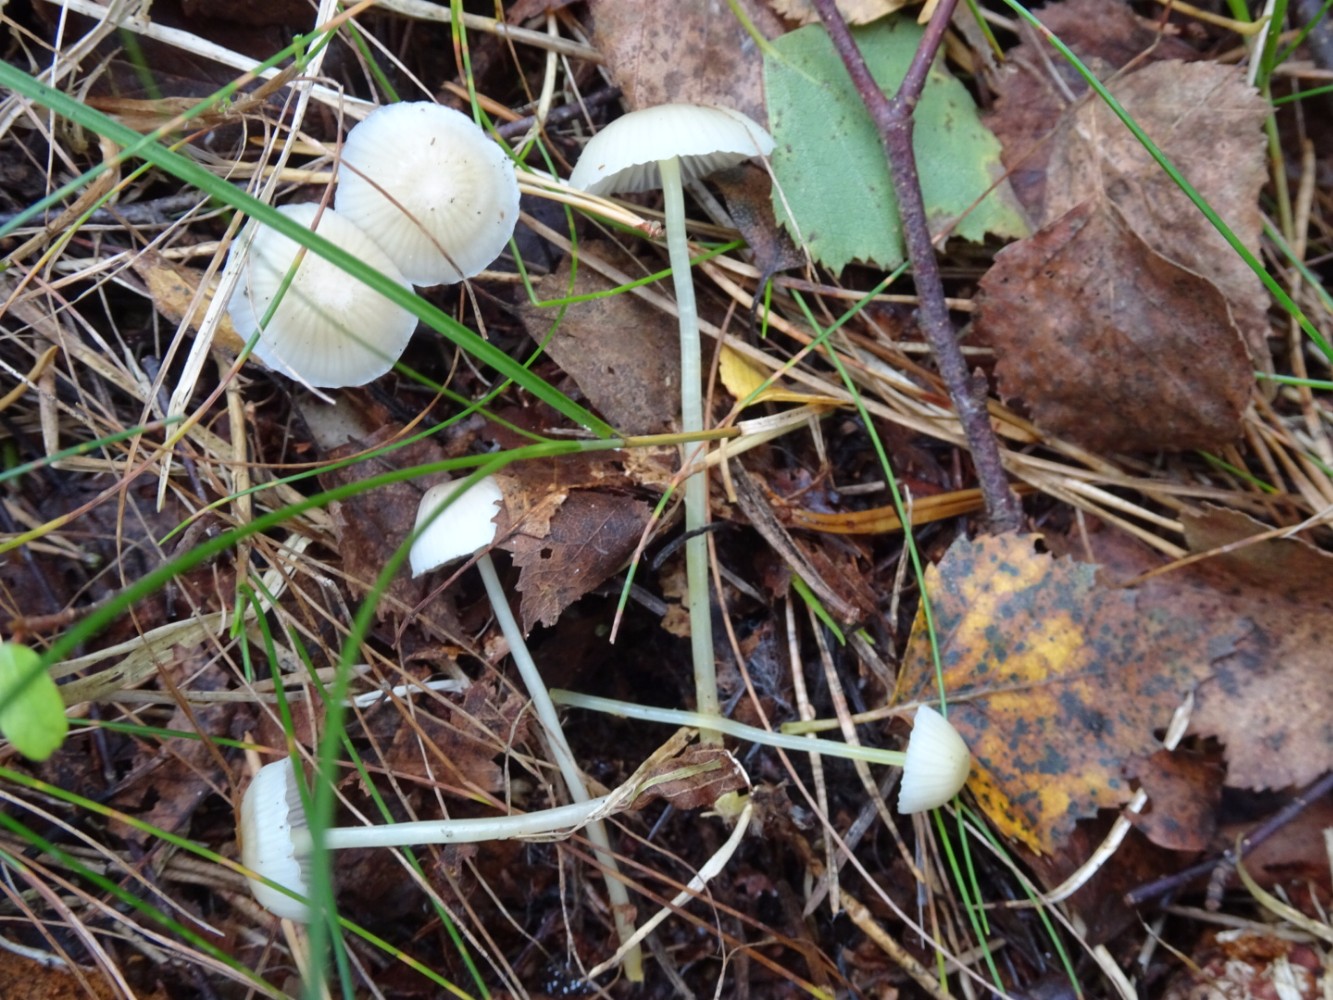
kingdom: Fungi
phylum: Basidiomycota
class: Agaricomycetes
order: Agaricales
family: Mycenaceae
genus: Mycena
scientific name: Mycena epipterygia
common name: gulstokket huesvamp
